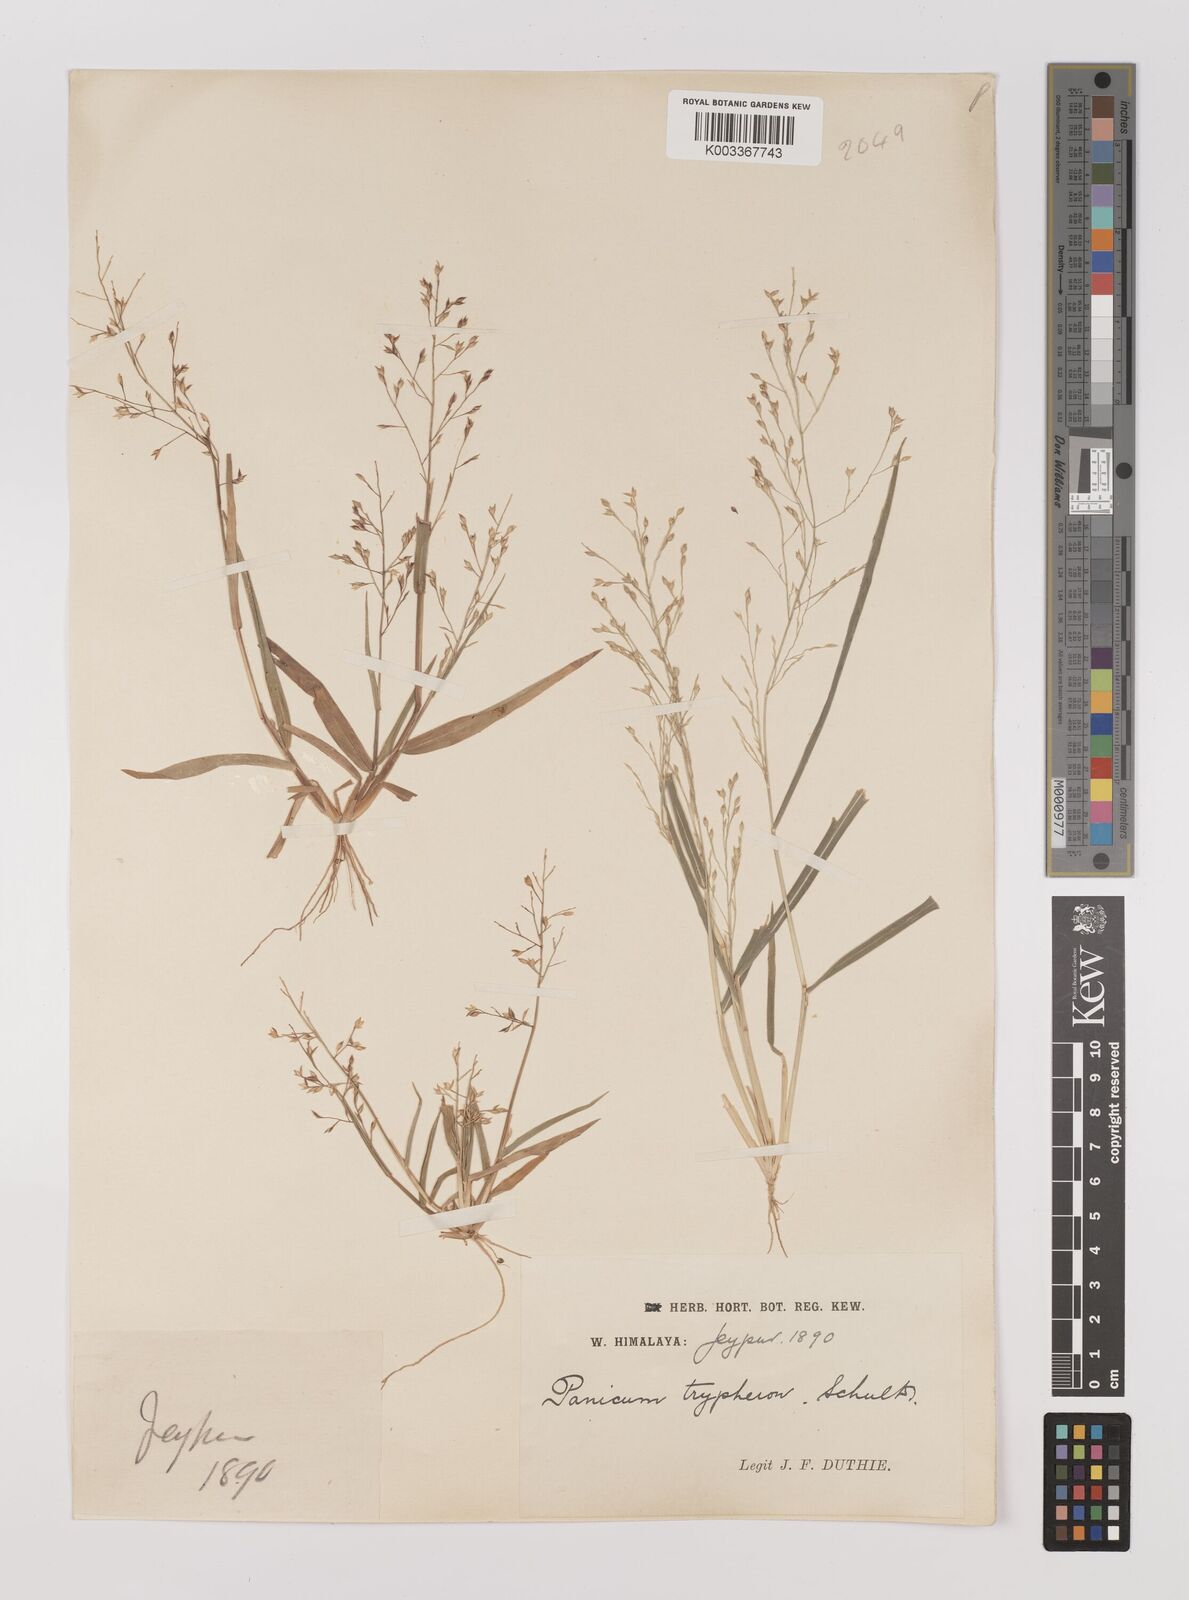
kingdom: Plantae
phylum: Tracheophyta
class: Liliopsida
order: Poales
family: Poaceae
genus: Panicum
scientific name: Panicum curviflorum
